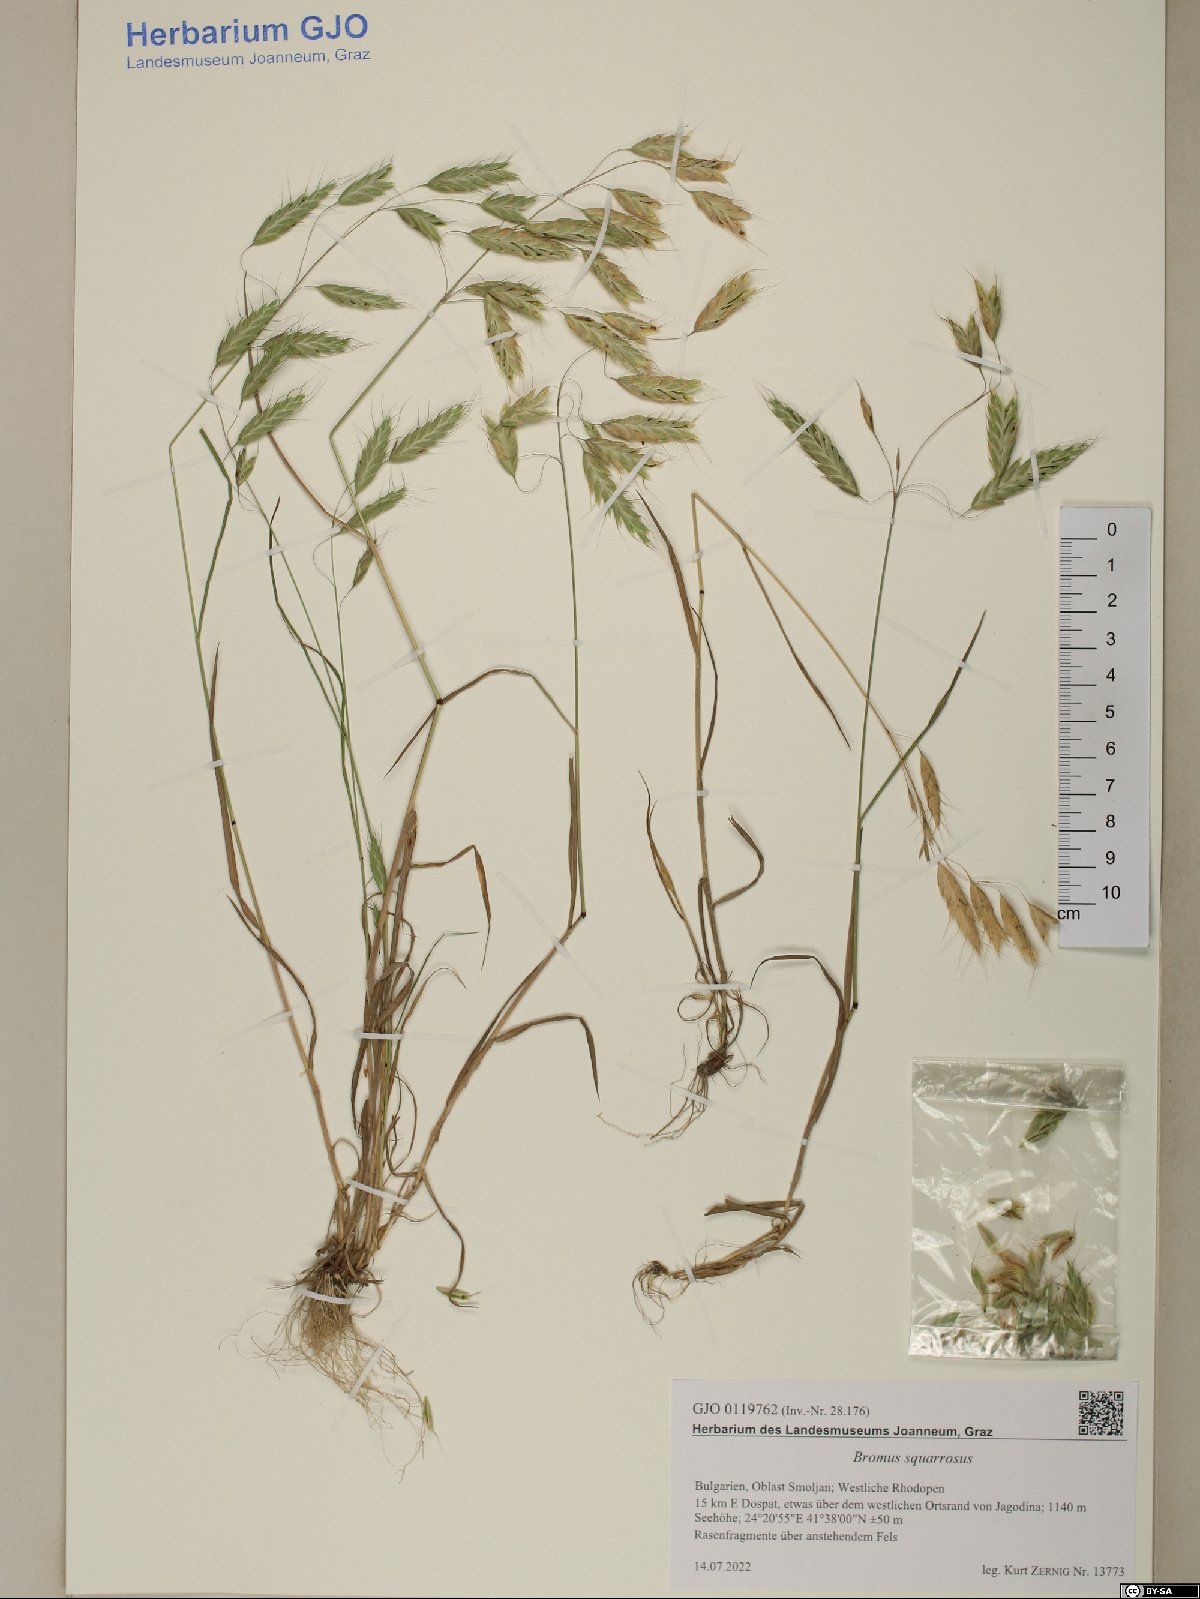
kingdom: Plantae
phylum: Tracheophyta
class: Liliopsida
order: Poales
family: Poaceae
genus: Bromus
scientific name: Bromus squarrosus
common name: Corn brome
